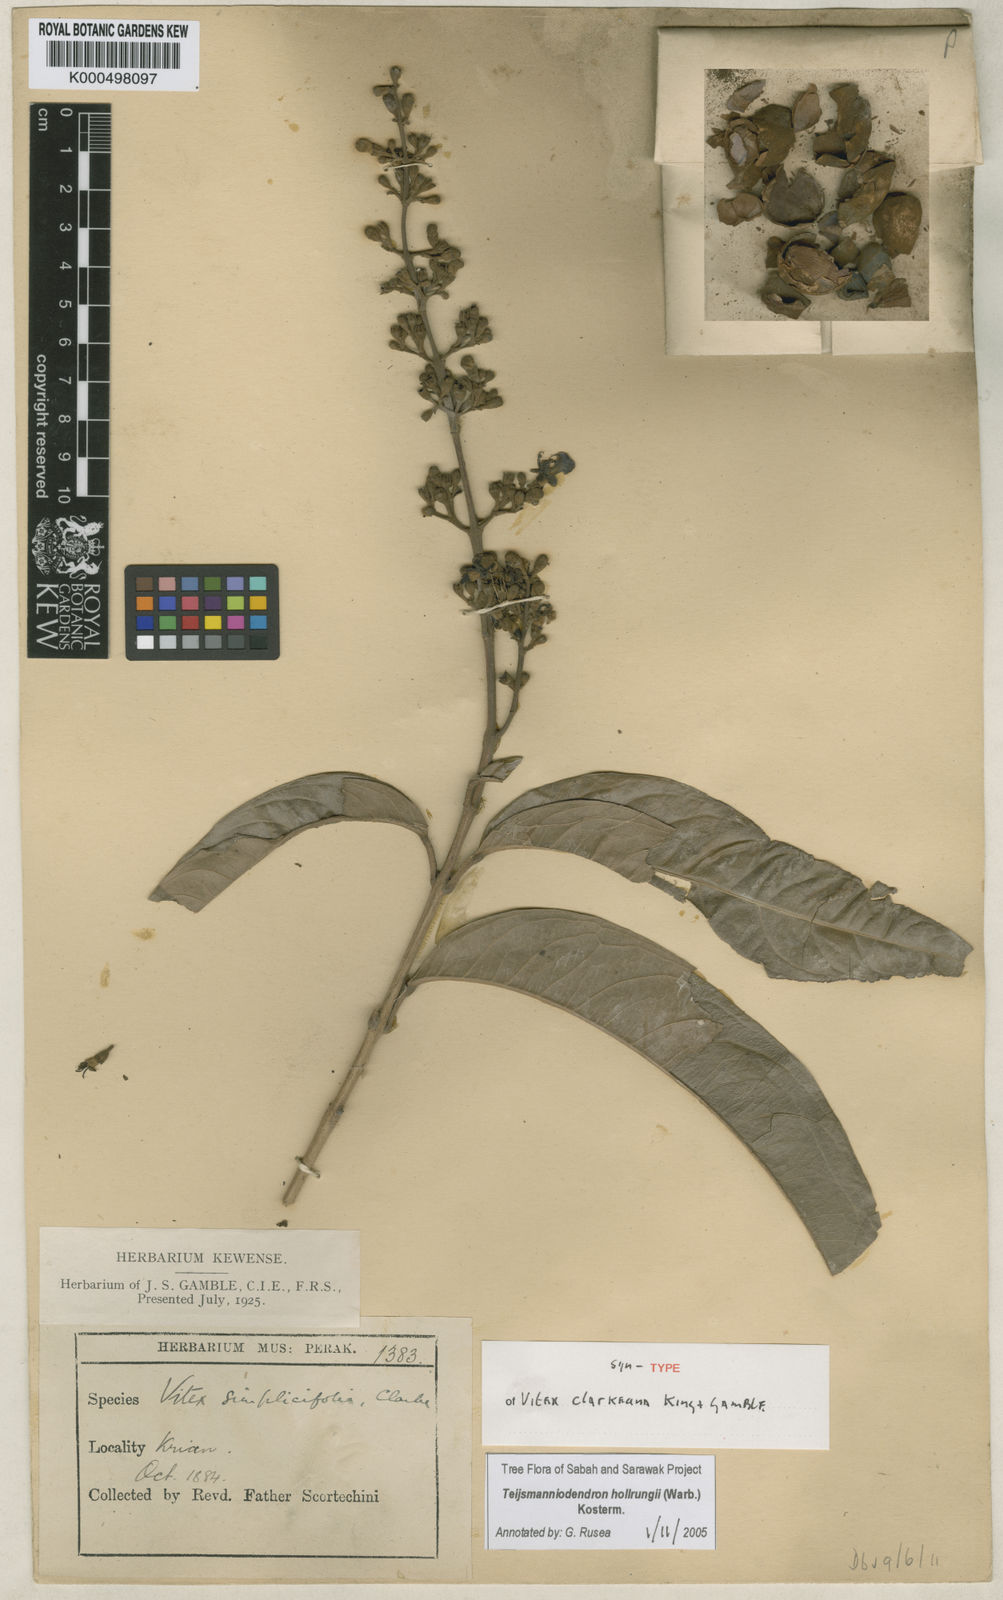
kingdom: Plantae
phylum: Tracheophyta
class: Magnoliopsida
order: Lamiales
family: Lamiaceae
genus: Teijsmanniodendron
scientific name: Teijsmanniodendron hollrungii
